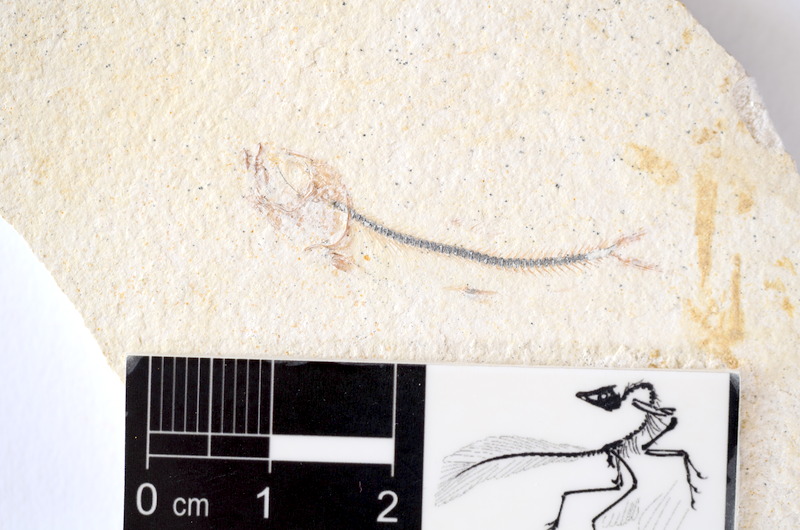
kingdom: Animalia
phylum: Chordata
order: Salmoniformes
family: Orthogonikleithridae
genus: Orthogonikleithrus
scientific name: Orthogonikleithrus hoelli
